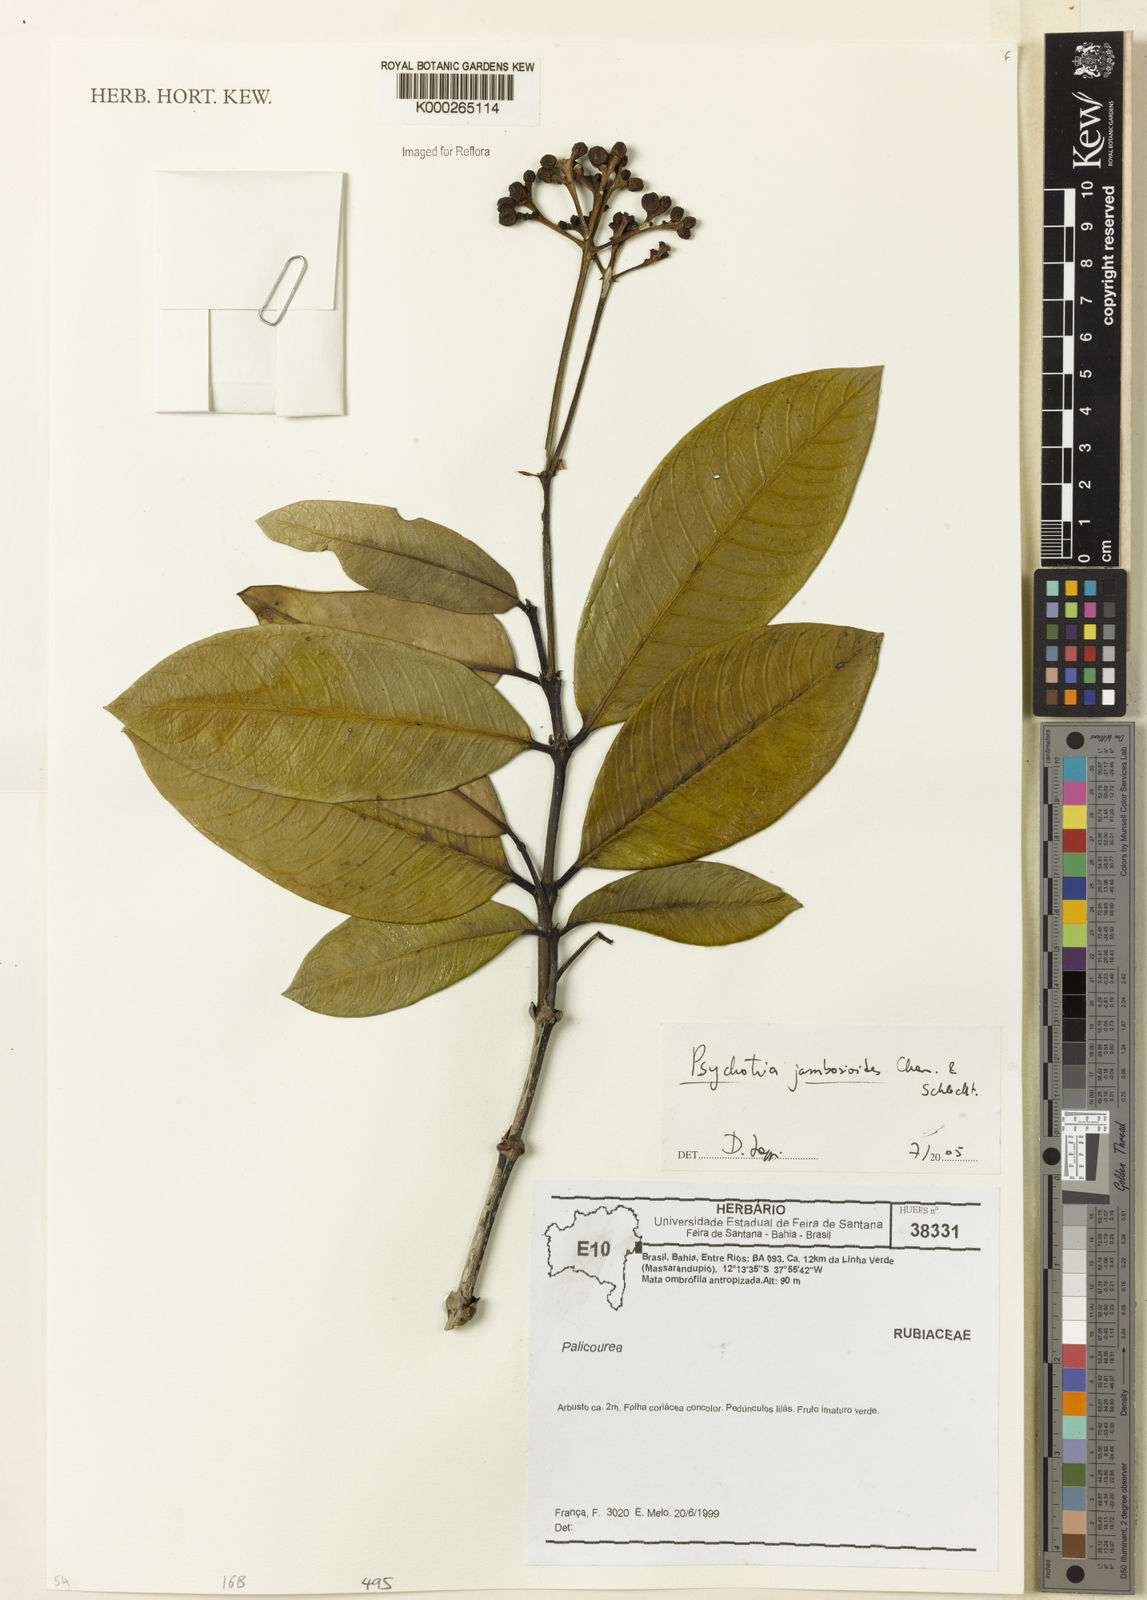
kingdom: Plantae
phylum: Tracheophyta
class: Magnoliopsida
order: Gentianales
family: Rubiaceae
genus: Palicourea
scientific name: Palicourea jambosioides
